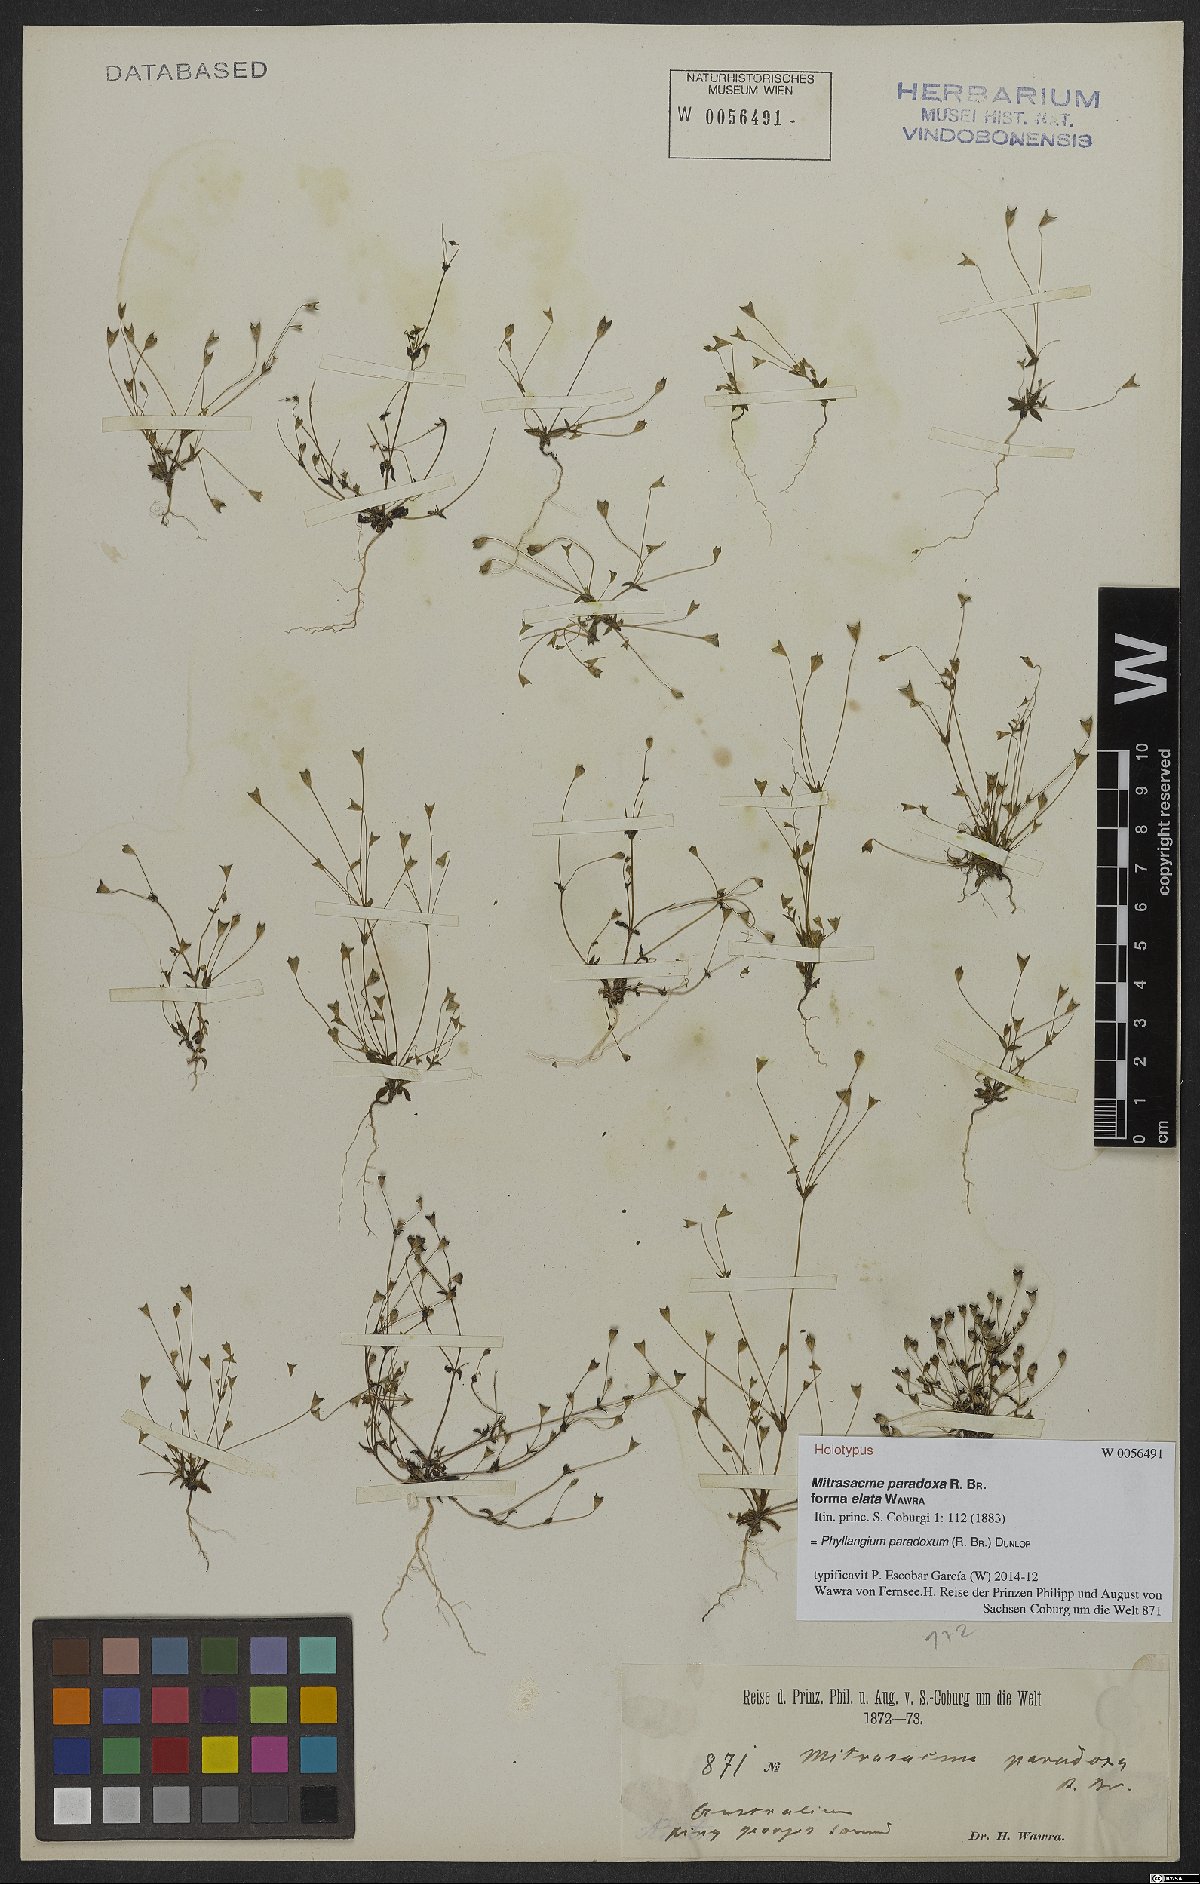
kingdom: Plantae
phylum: Tracheophyta
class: Magnoliopsida
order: Gentianales
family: Loganiaceae
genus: Phyllangium
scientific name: Phyllangium paradoxum
